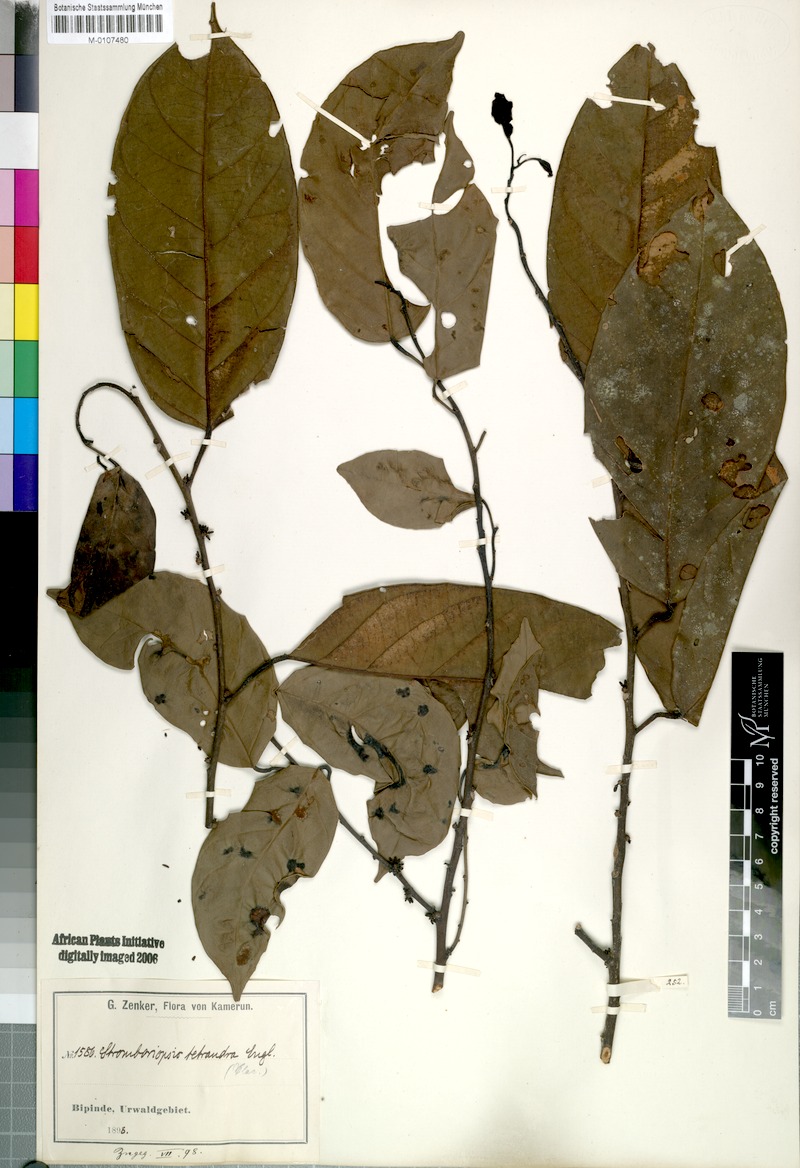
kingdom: Plantae
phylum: Tracheophyta
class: Magnoliopsida
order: Santalales
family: Strombosiaceae
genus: Strombosiopsis
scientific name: Strombosiopsis tetrandra
